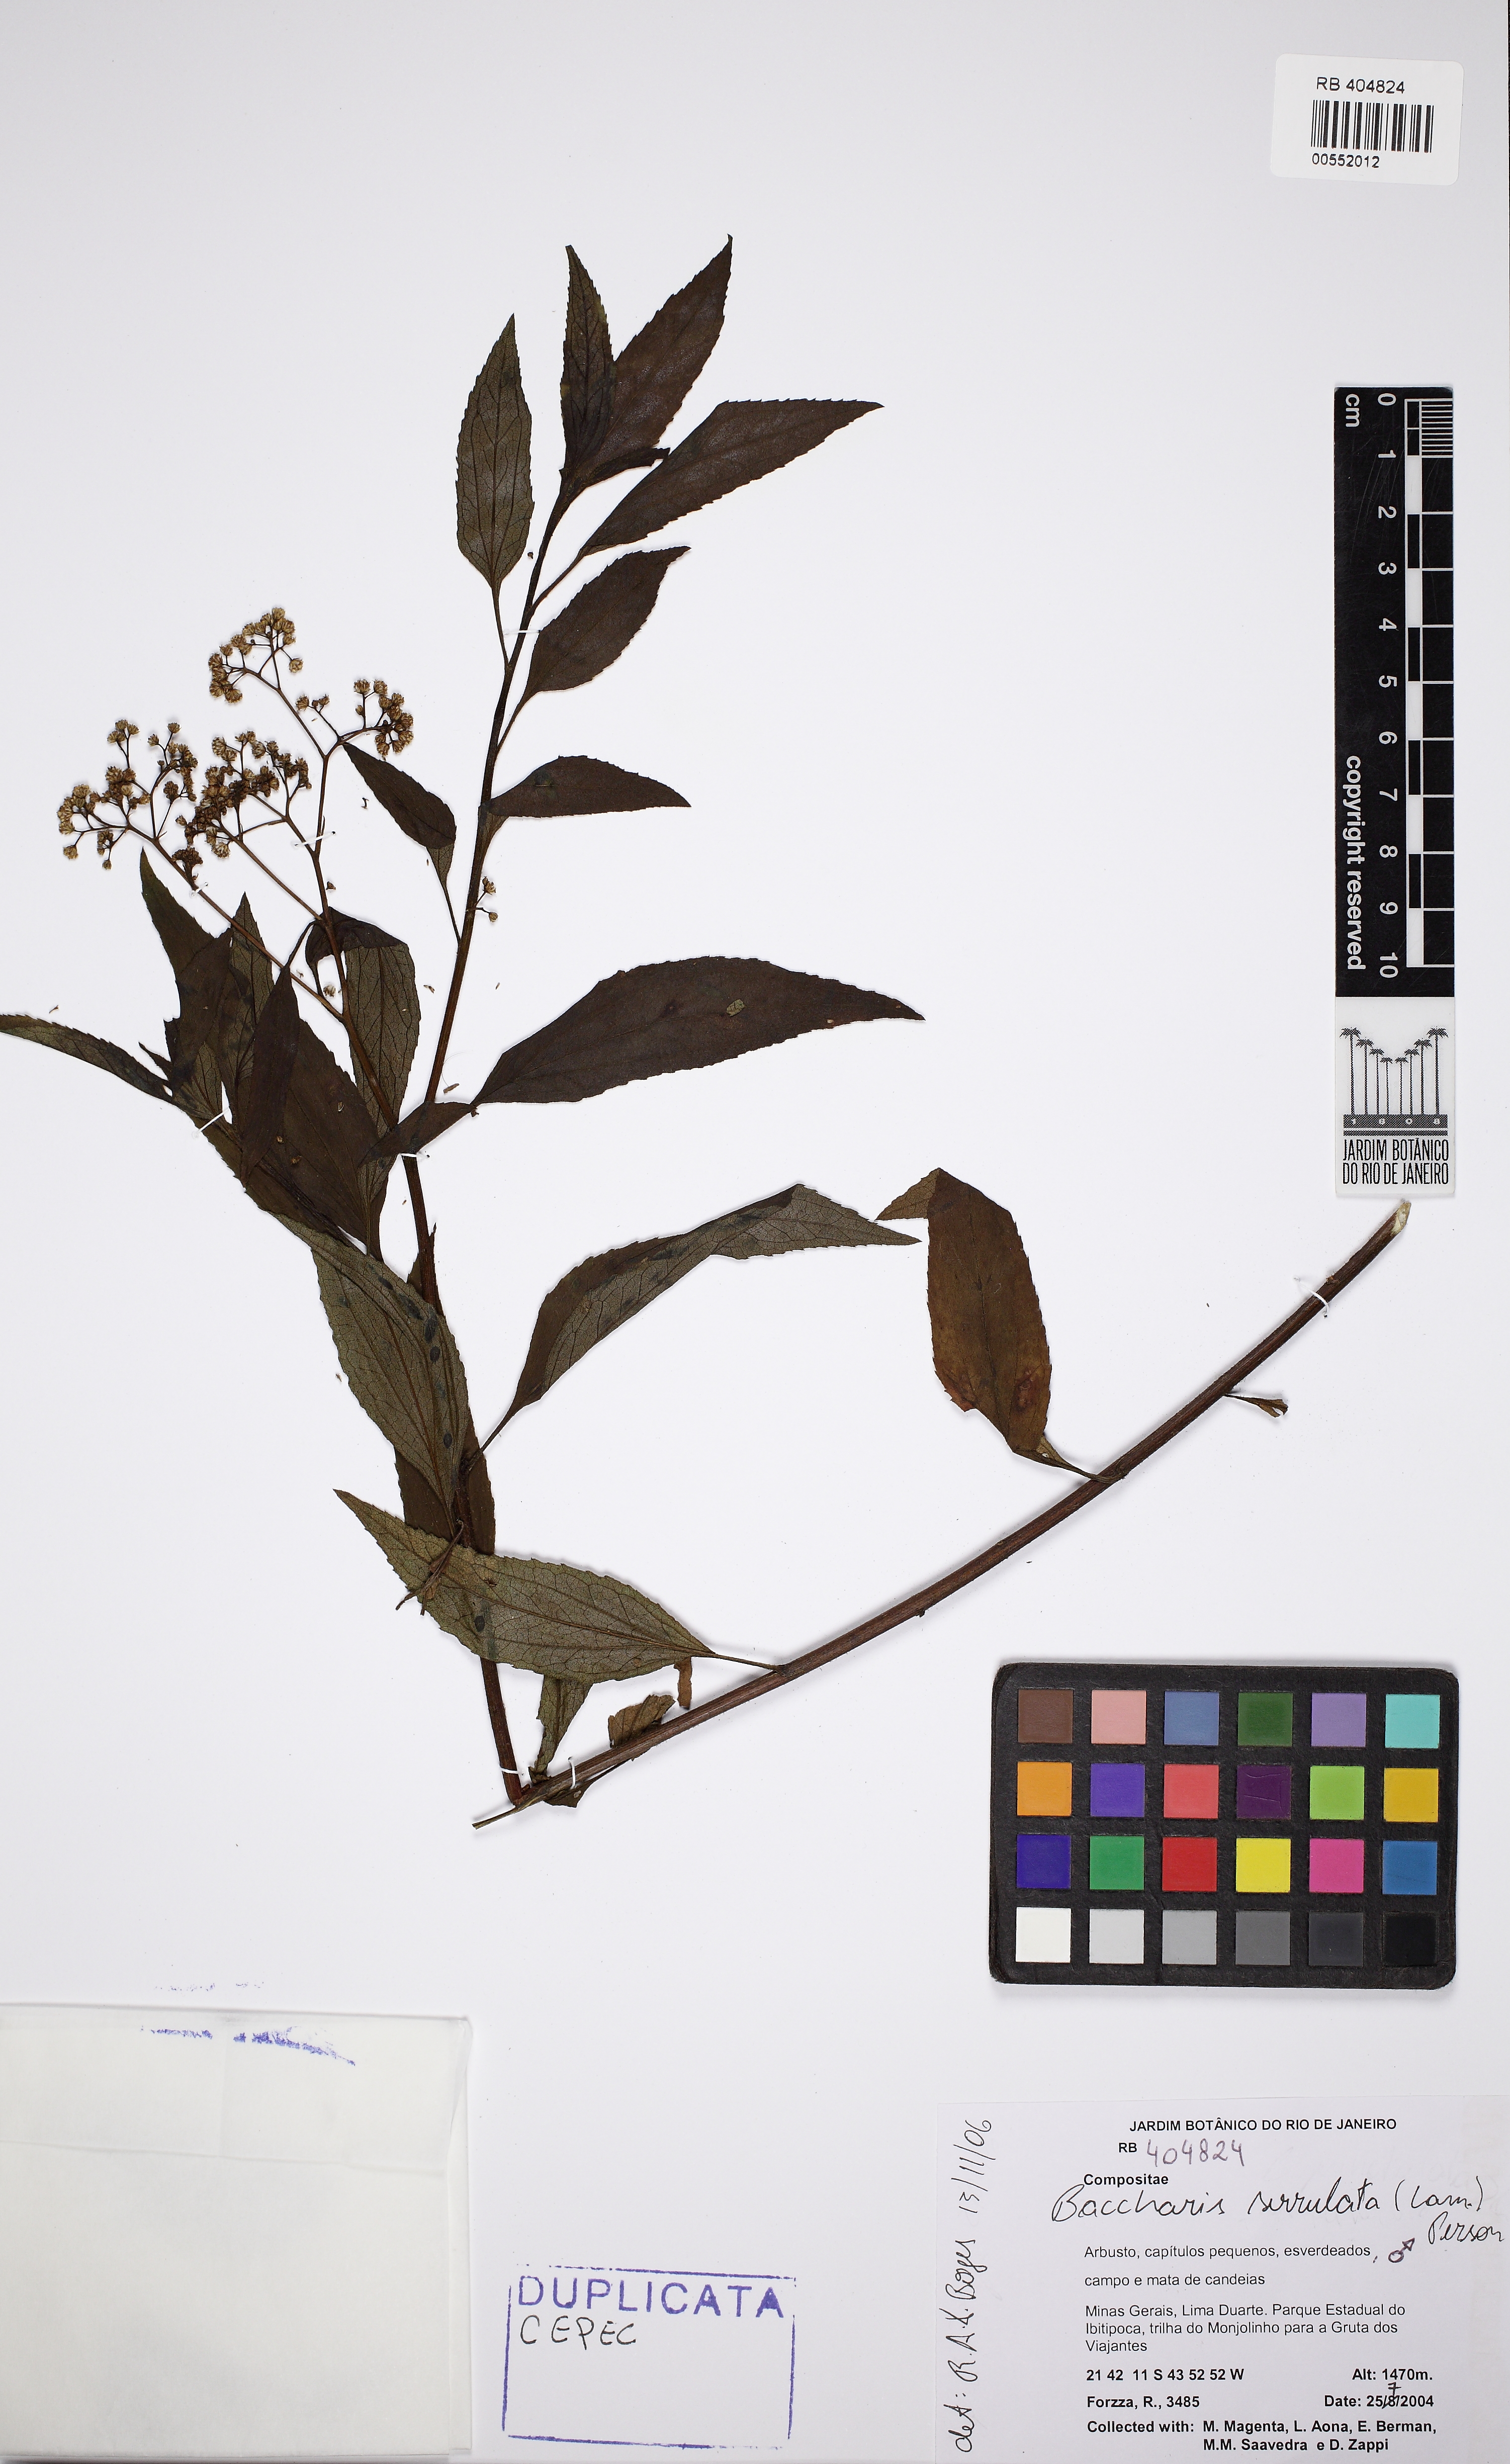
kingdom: Plantae
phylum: Tracheophyta
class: Magnoliopsida
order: Asterales
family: Asteraceae
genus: Baccharis
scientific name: Baccharis serrulata
